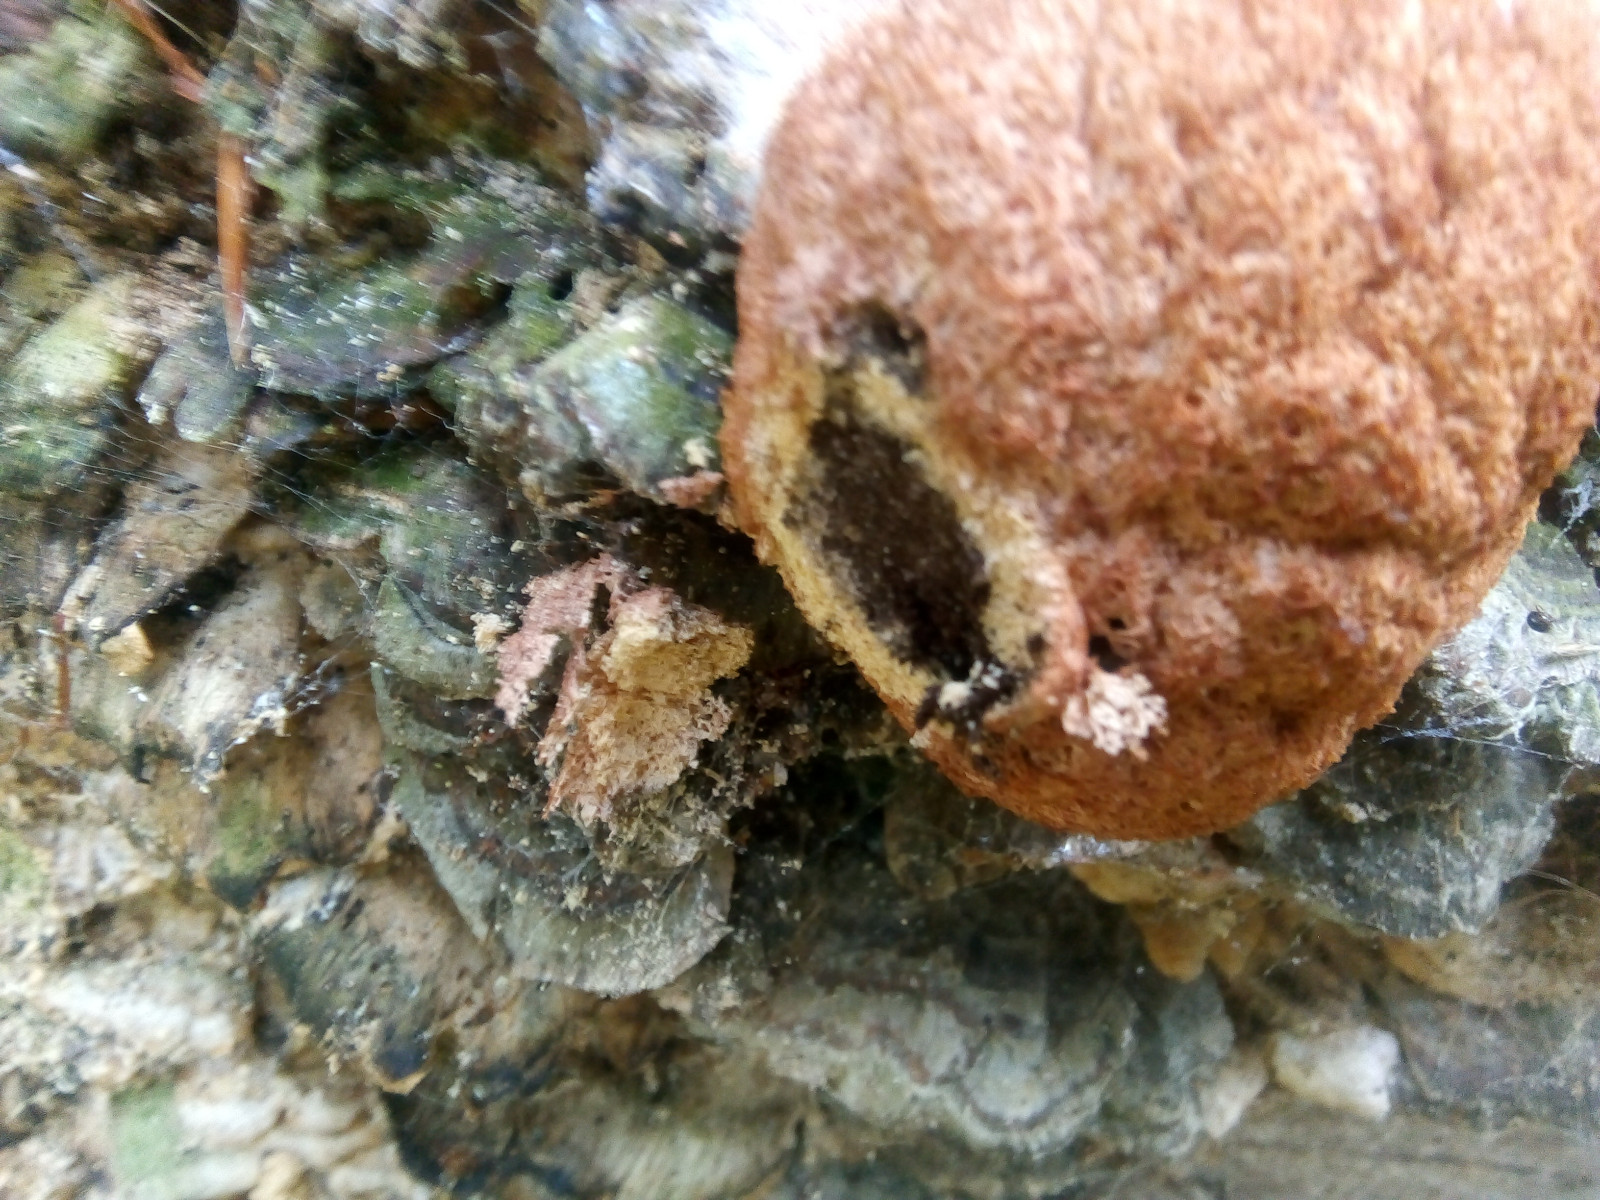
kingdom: Protozoa
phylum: Mycetozoa
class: Myxomycetes
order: Physarales
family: Physaraceae
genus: Fuligo
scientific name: Fuligo septica
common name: Dog vomit slime mold
